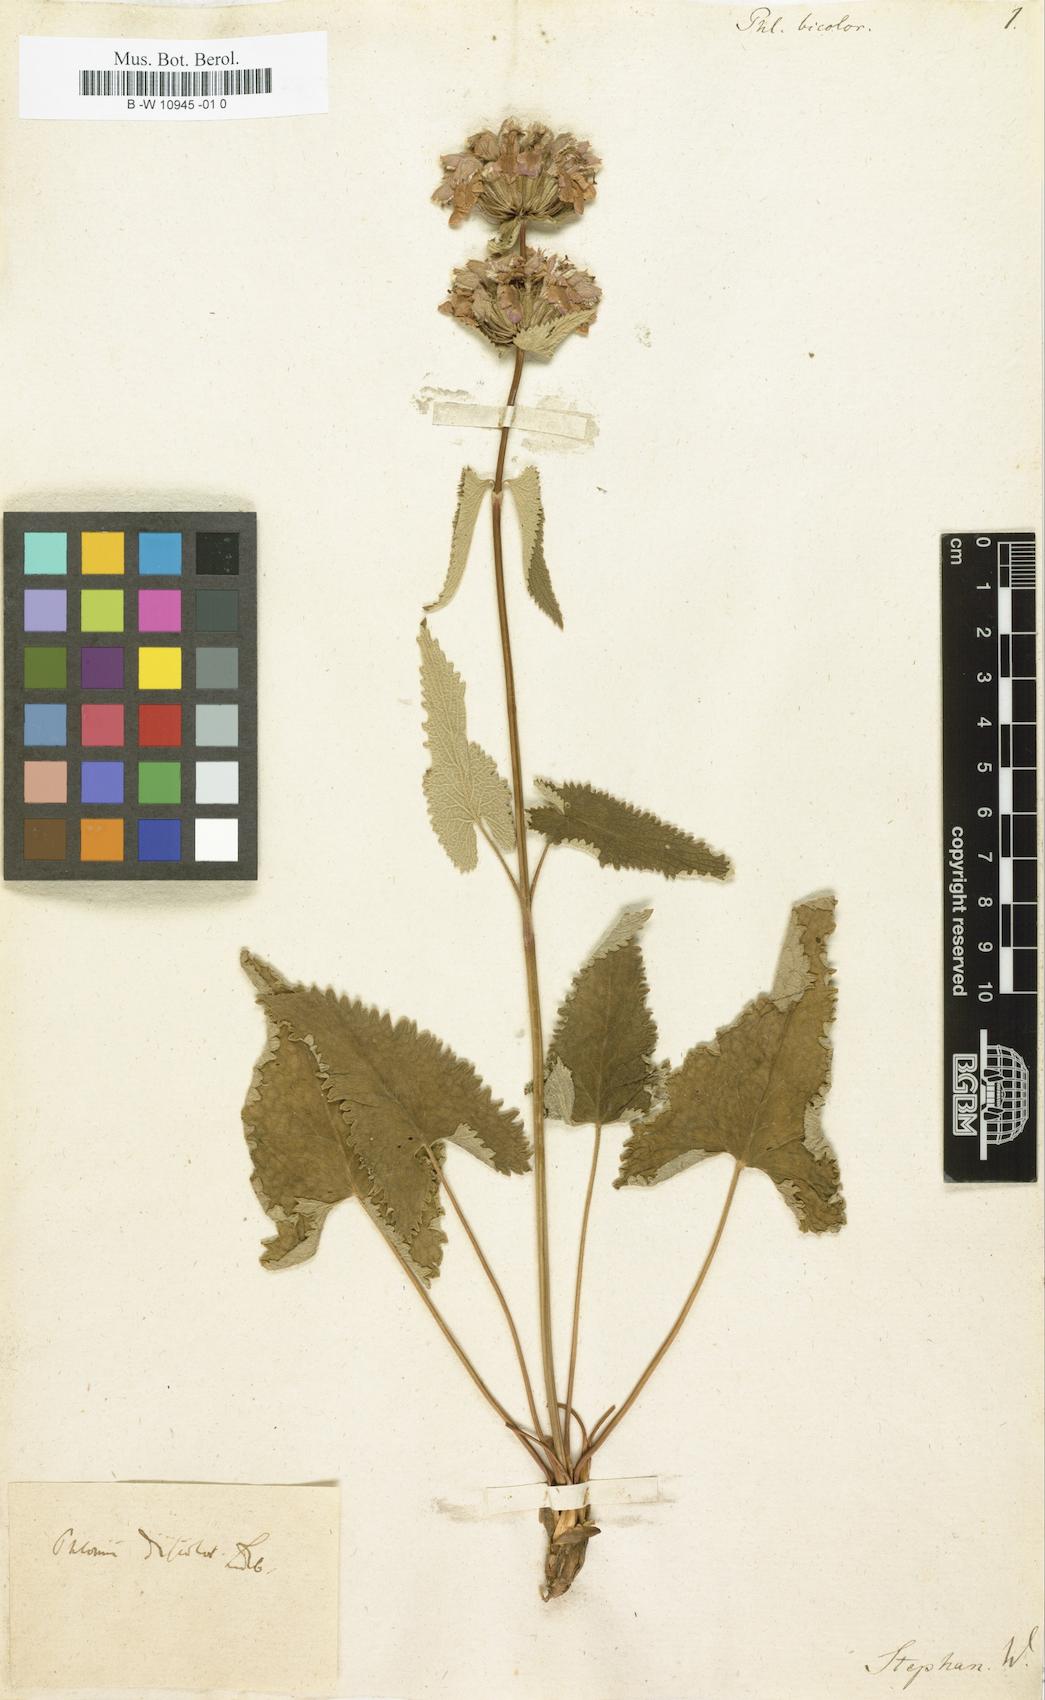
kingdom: Plantae
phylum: Tracheophyta
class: Magnoliopsida
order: Lamiales
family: Lamiaceae
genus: Phlomis
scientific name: Phlomis floccosa
